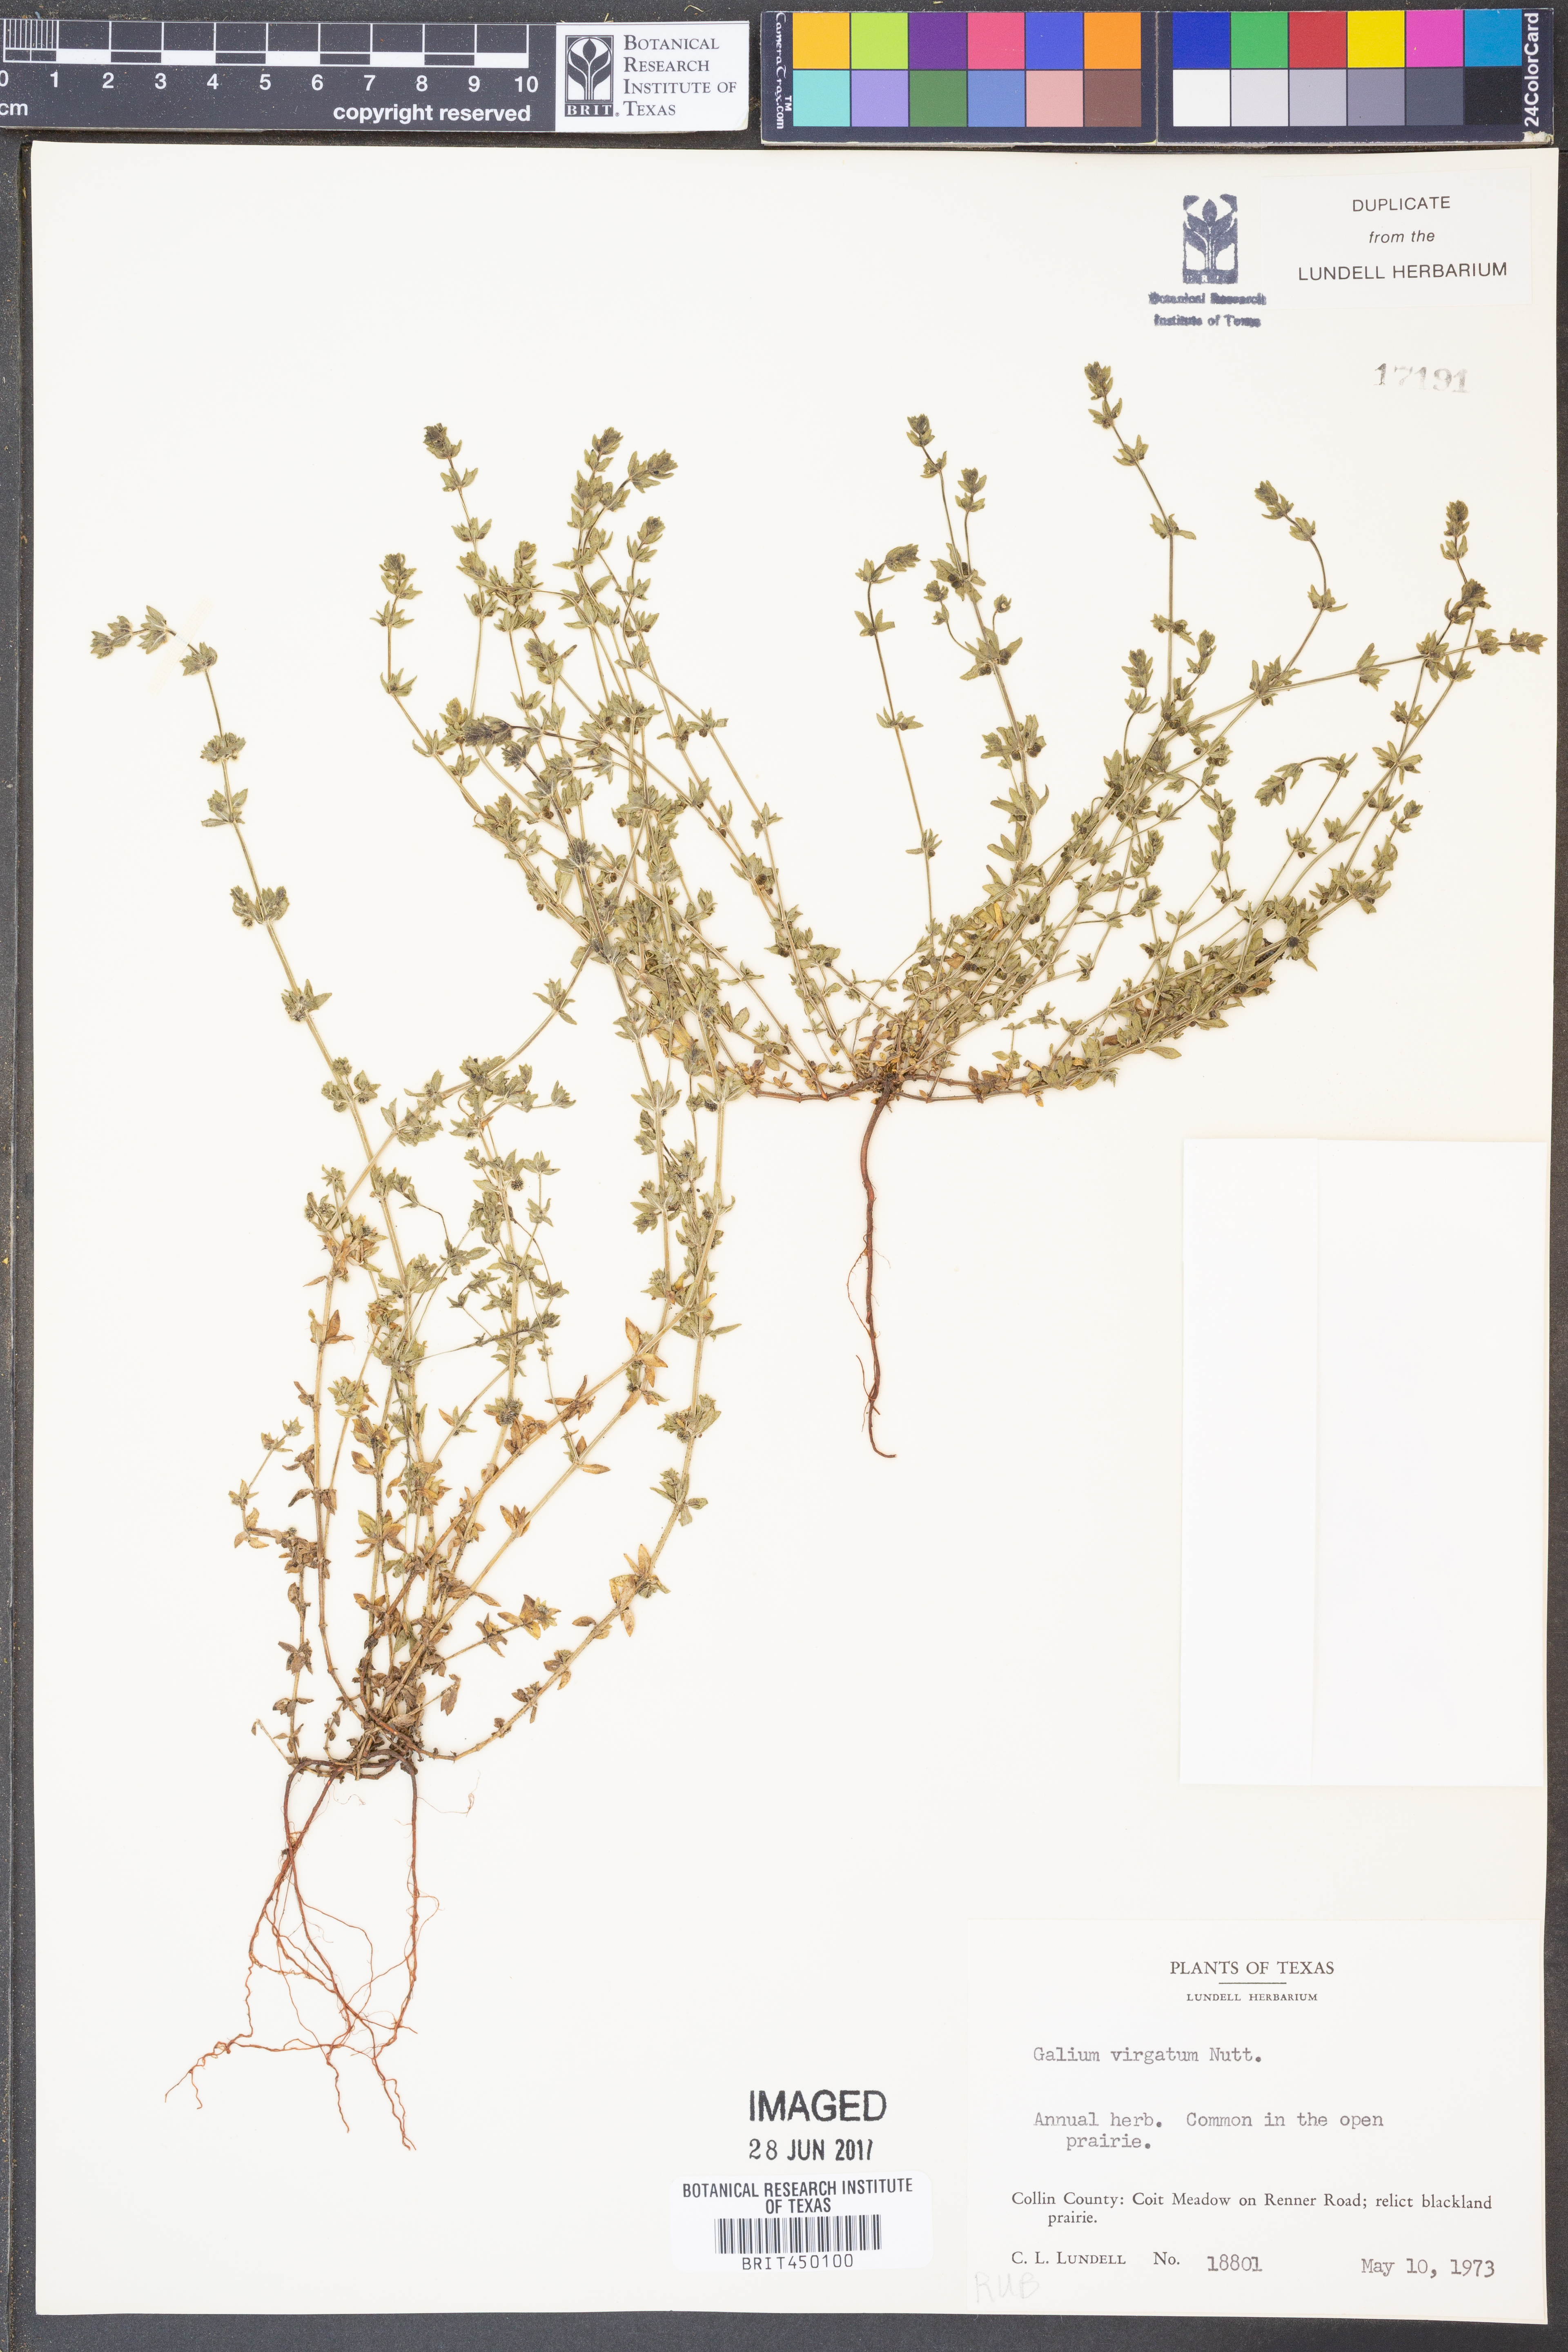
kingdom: Plantae
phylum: Tracheophyta
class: Magnoliopsida
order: Gentianales
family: Rubiaceae
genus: Galium
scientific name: Galium virgatum
